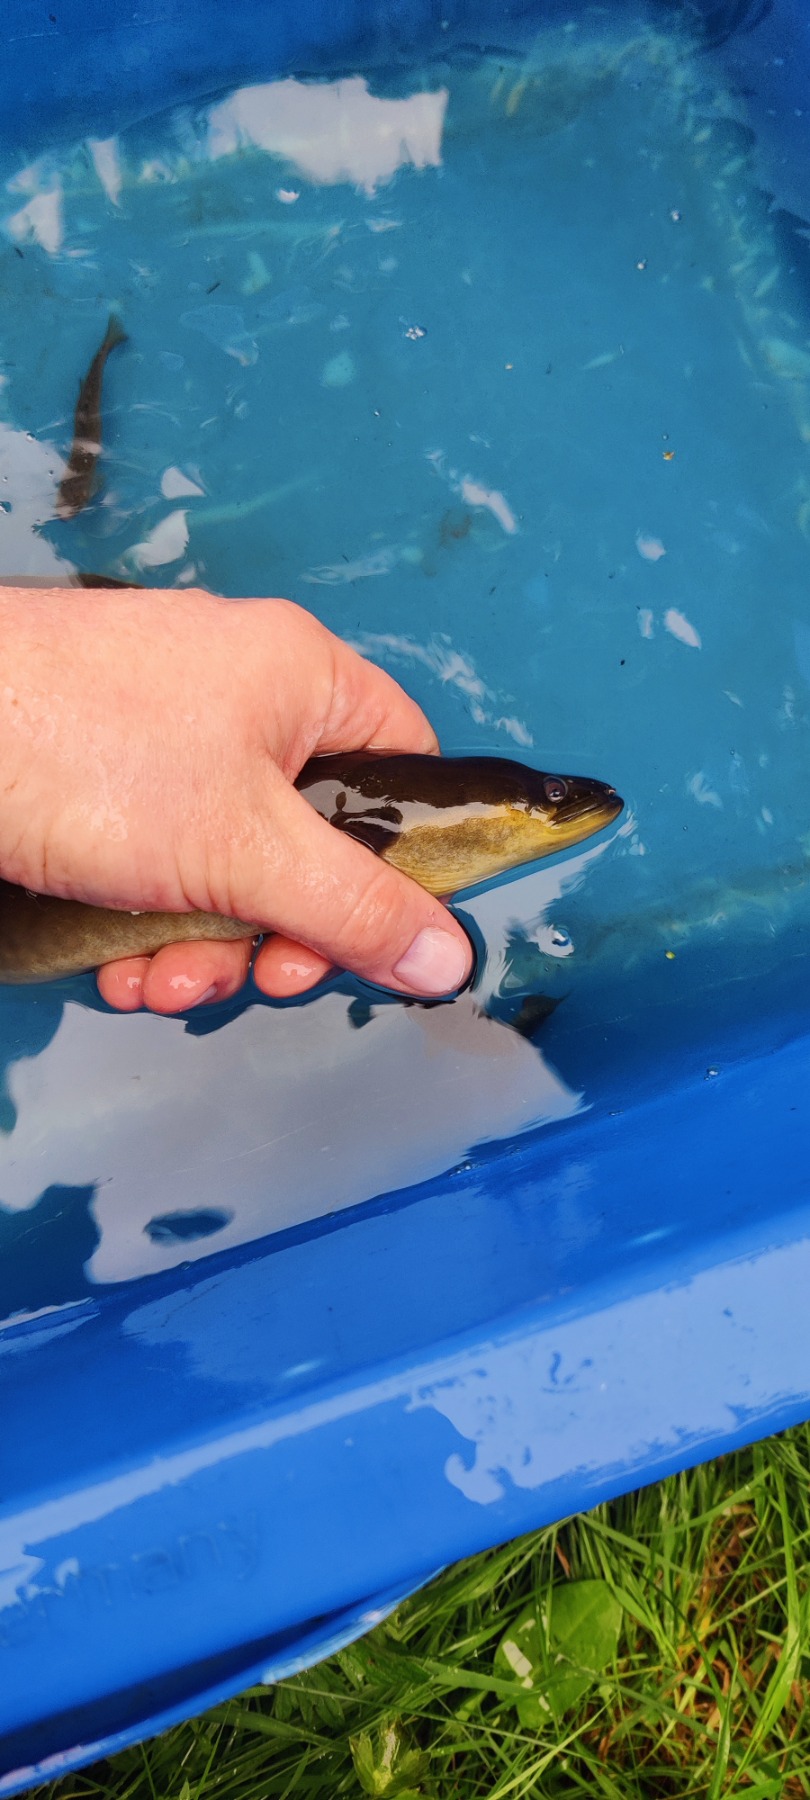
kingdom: Animalia
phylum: Chordata
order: Anguilliformes
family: Anguillidae
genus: Anguilla
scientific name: Anguilla anguilla
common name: Europæisk ål
